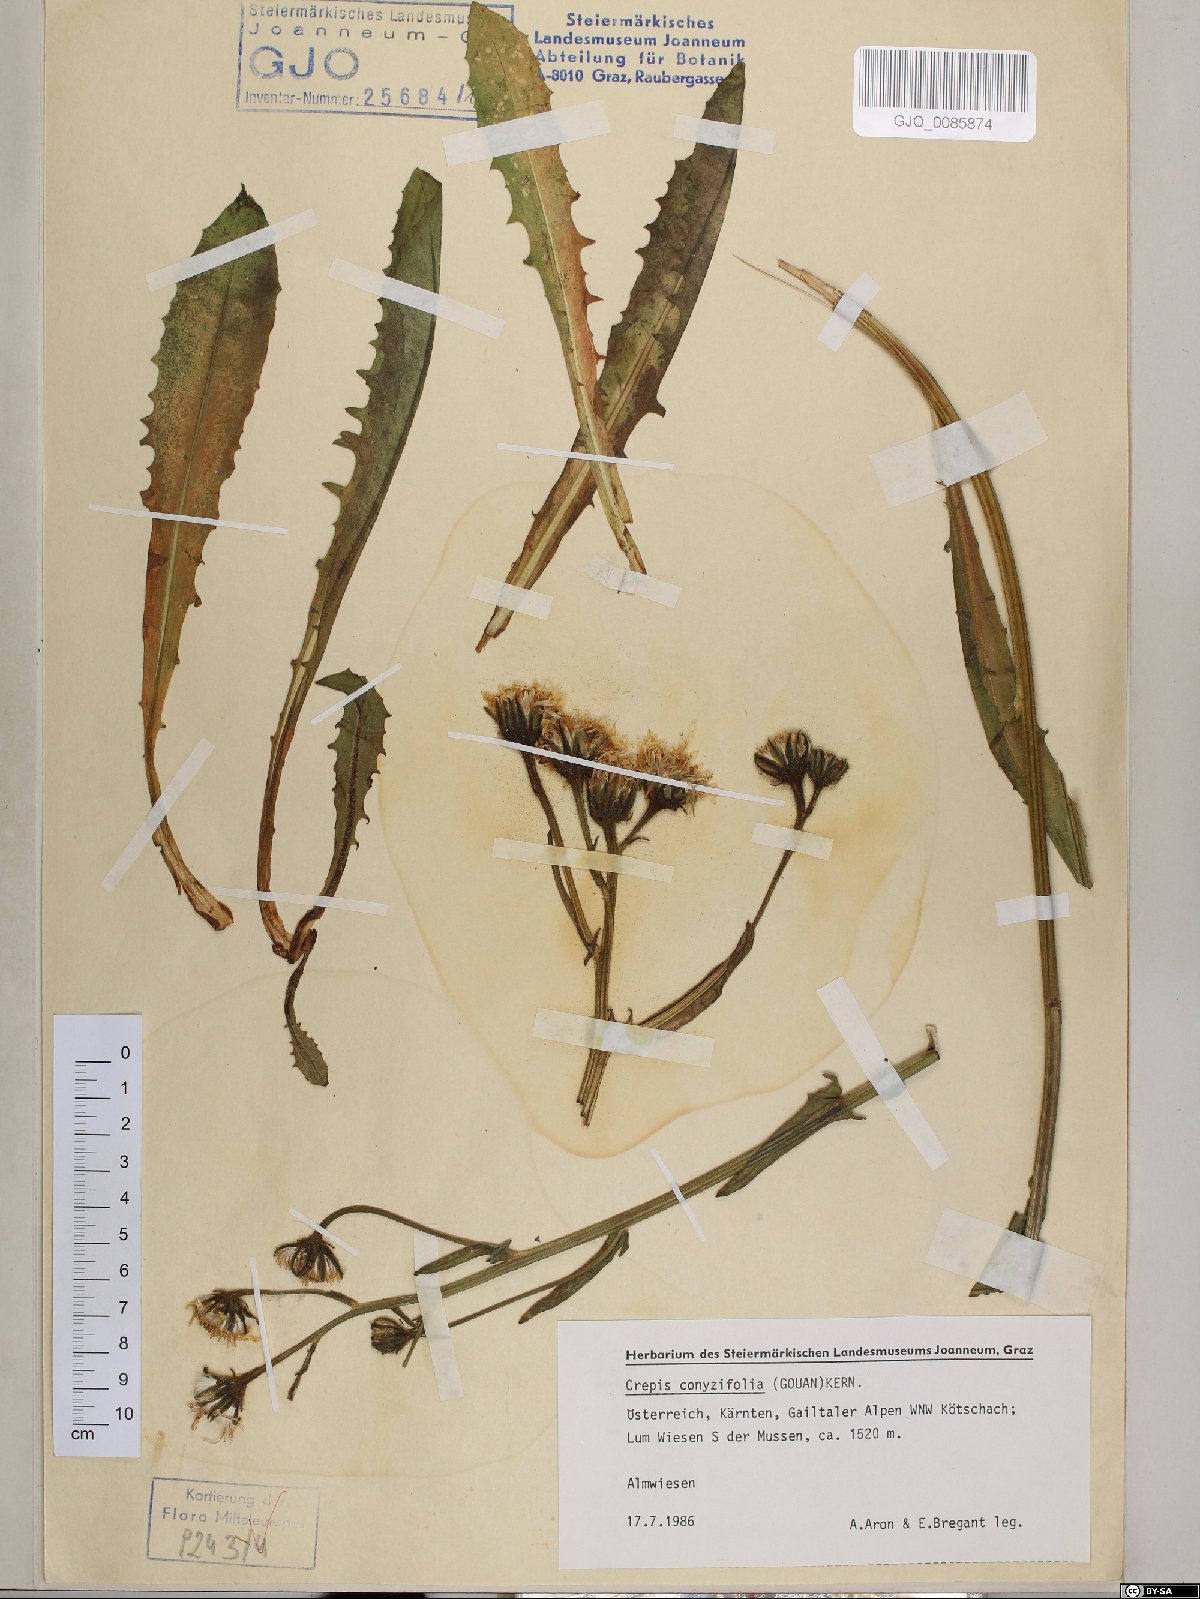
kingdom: Plantae
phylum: Tracheophyta
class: Magnoliopsida
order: Asterales
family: Asteraceae
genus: Crepis
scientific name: Crepis blattarioides
